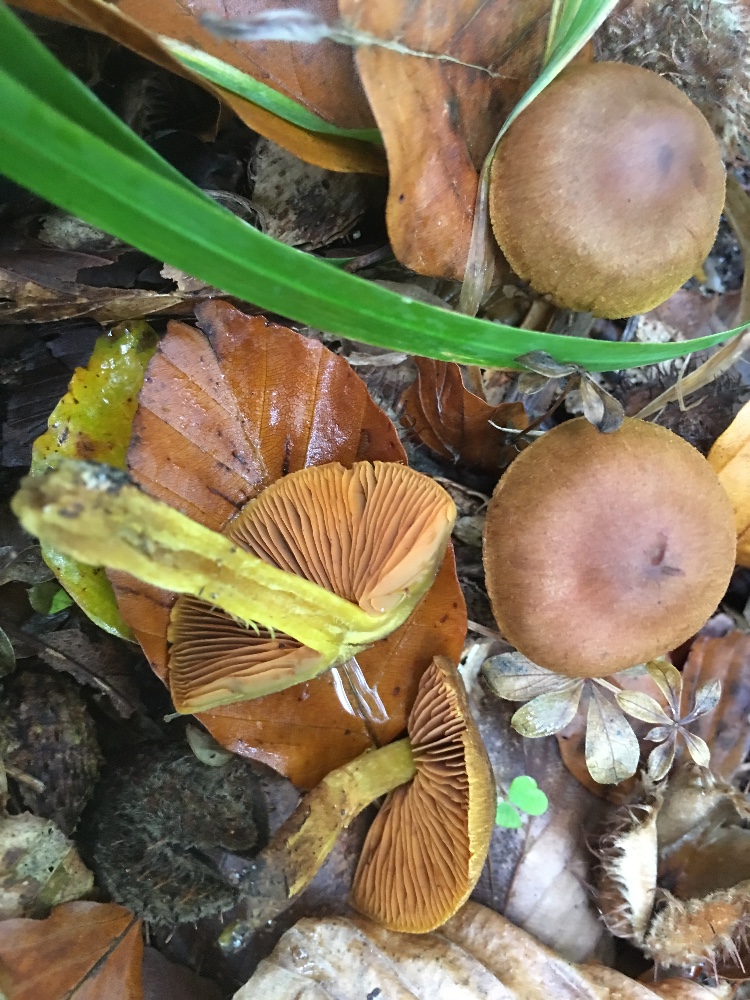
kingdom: Fungi
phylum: Basidiomycota
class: Agaricomycetes
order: Agaricales
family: Cortinariaceae
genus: Cortinarius
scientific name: Cortinarius malicorius
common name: grønkødet slørhat
